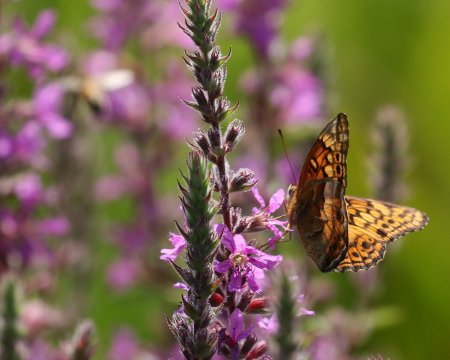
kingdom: Animalia
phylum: Arthropoda
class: Insecta
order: Lepidoptera
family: Nymphalidae
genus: Euptoieta
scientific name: Euptoieta claudia
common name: Variegated Fritillary
